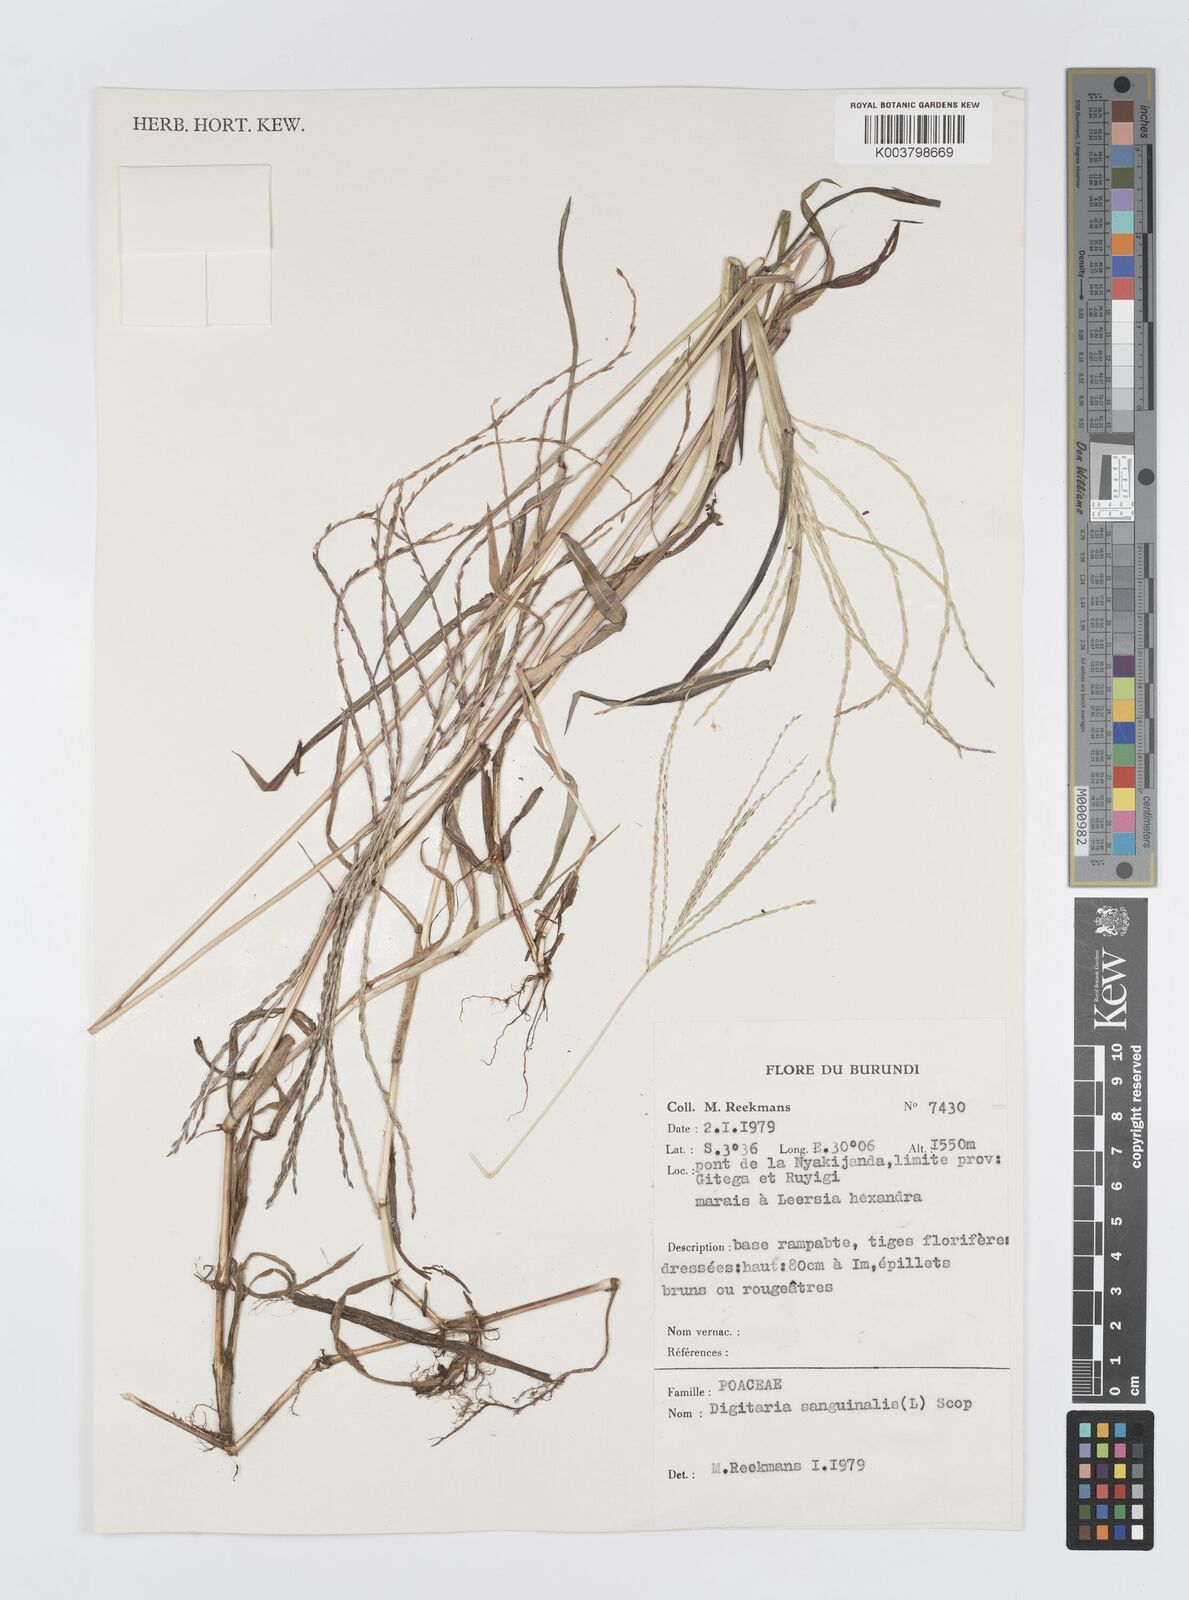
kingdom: Plantae
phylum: Tracheophyta
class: Liliopsida
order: Poales
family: Poaceae
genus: Digitaria
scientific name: Digitaria sanguinalis
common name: Hairy crabgrass
